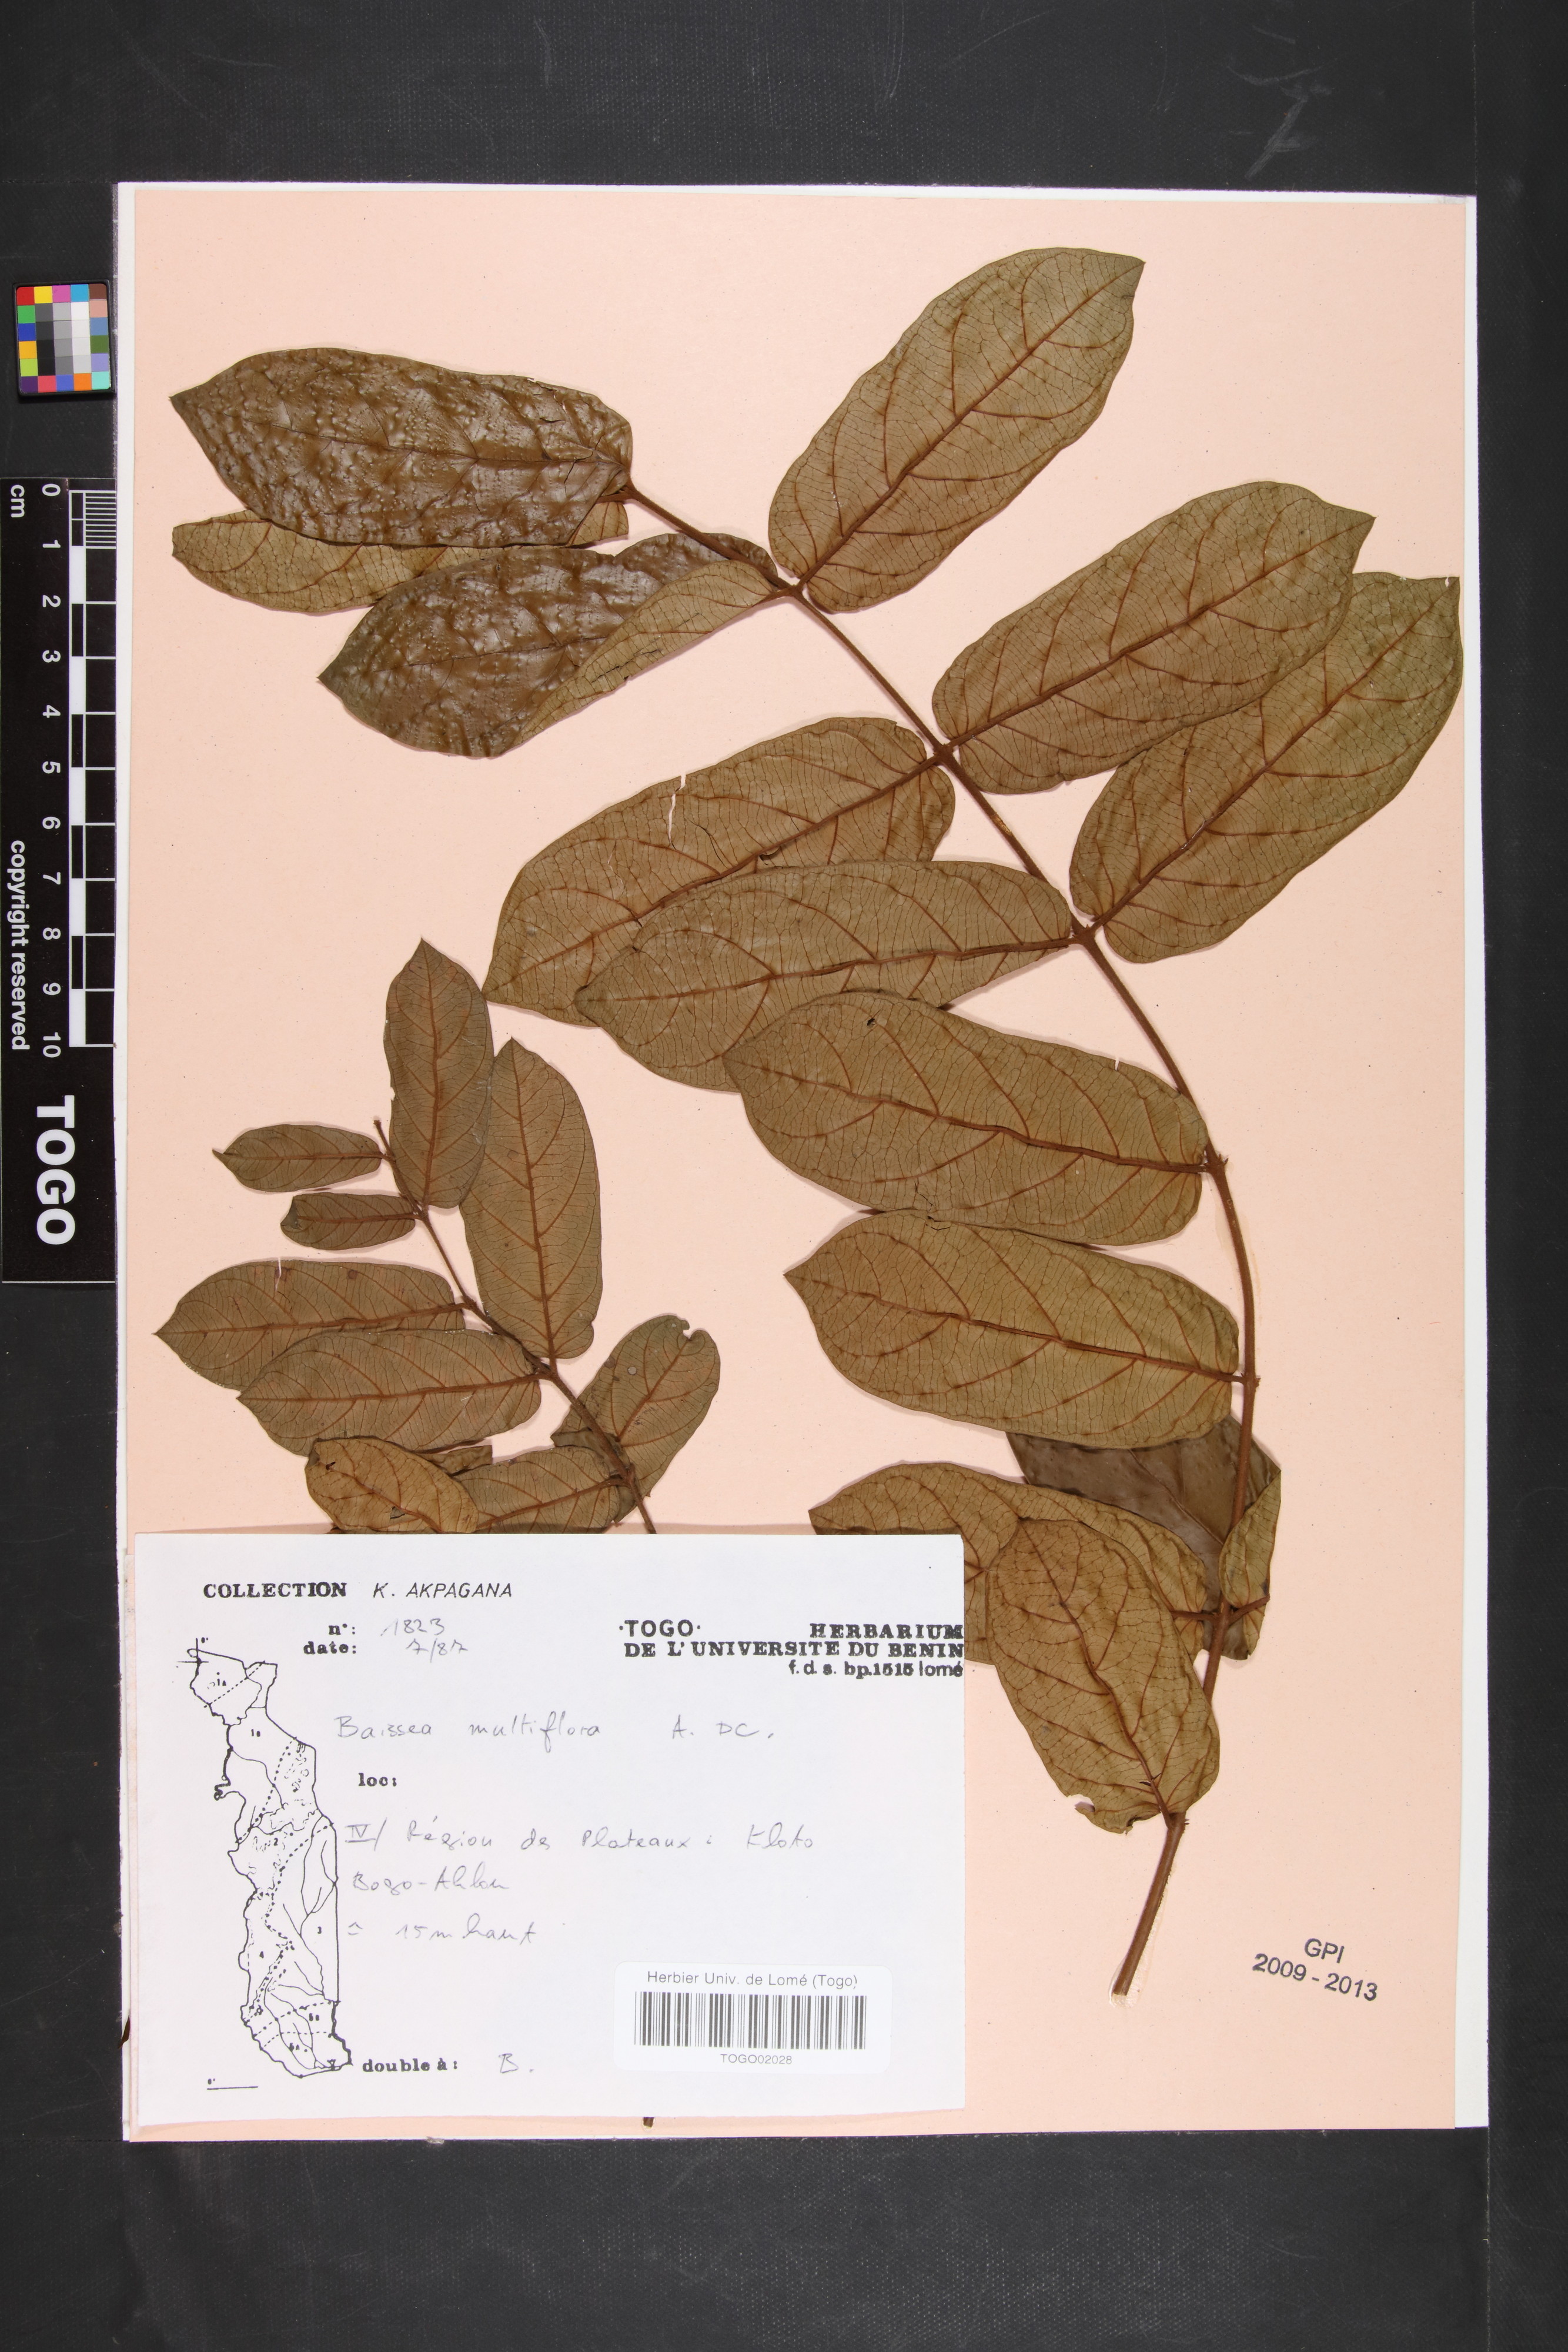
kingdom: Plantae
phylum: Tracheophyta
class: Magnoliopsida
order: Gentianales
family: Apocynaceae
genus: Baissea
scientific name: Baissea leonensis
